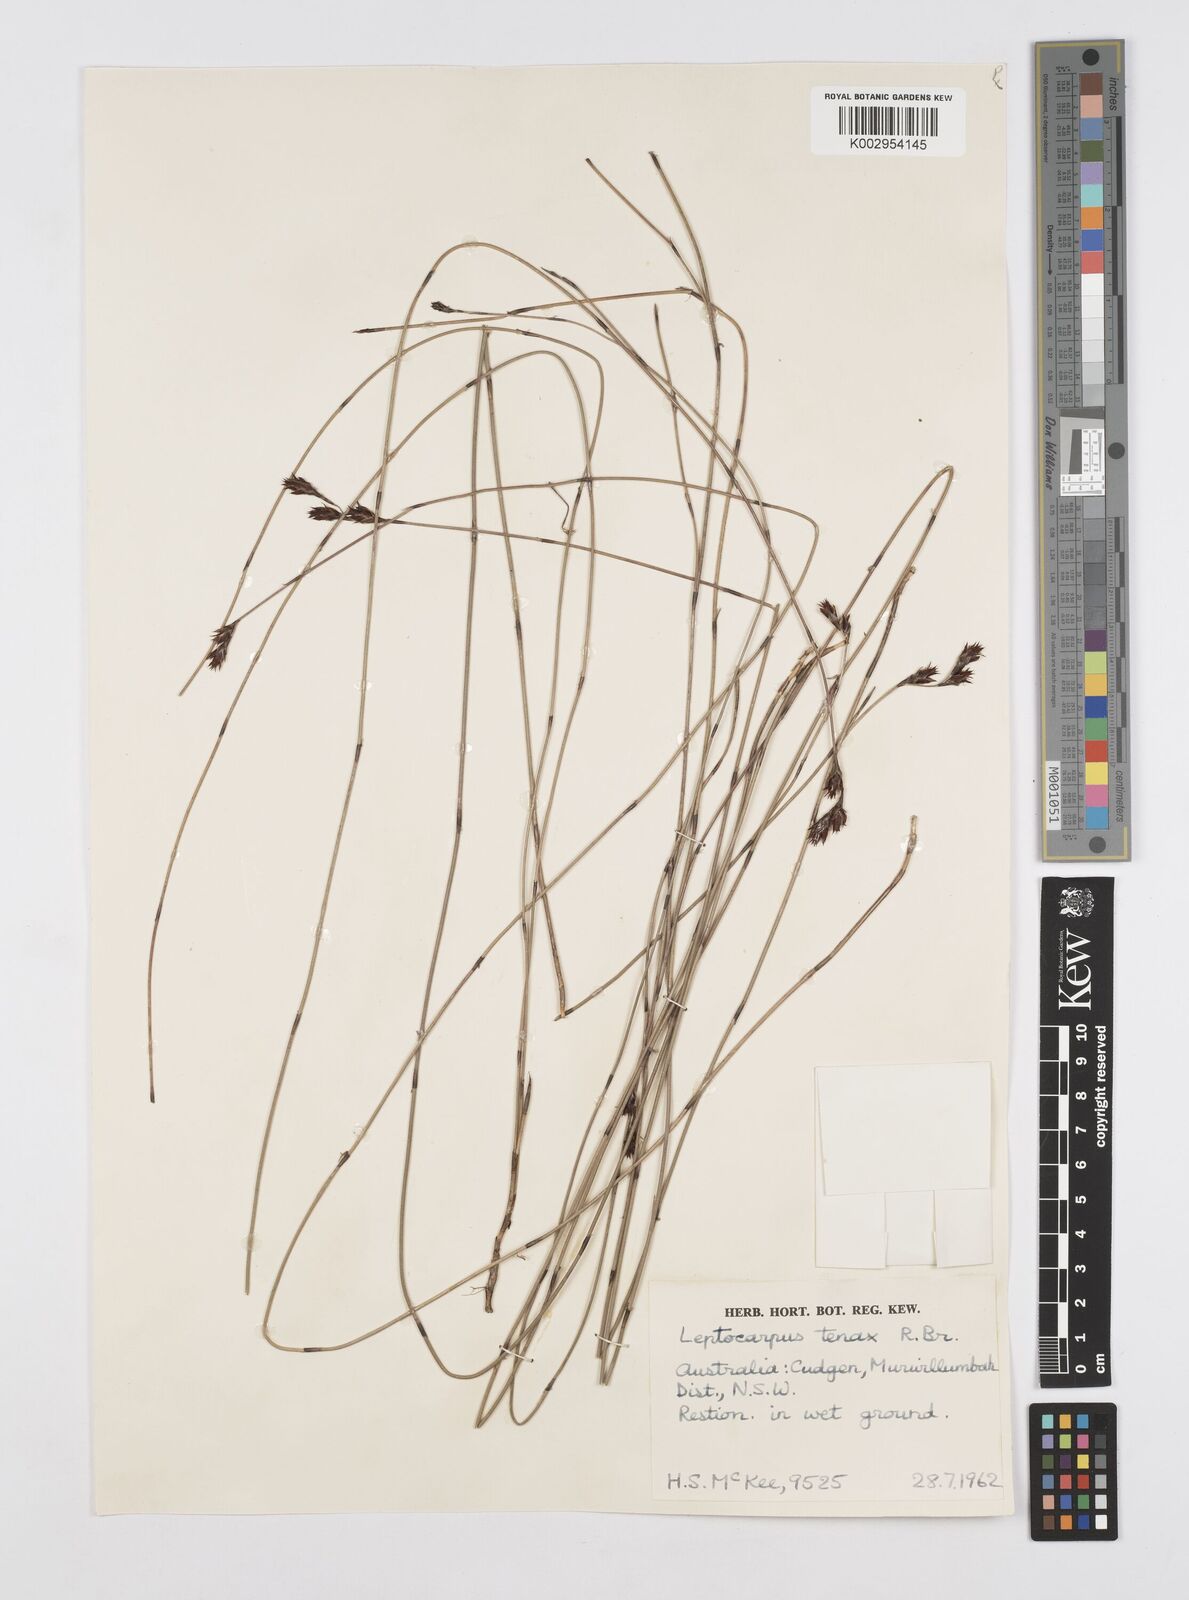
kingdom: Plantae
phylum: Tracheophyta
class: Liliopsida
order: Poales
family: Restionaceae
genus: Leptocarpus
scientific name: Leptocarpus tenax
